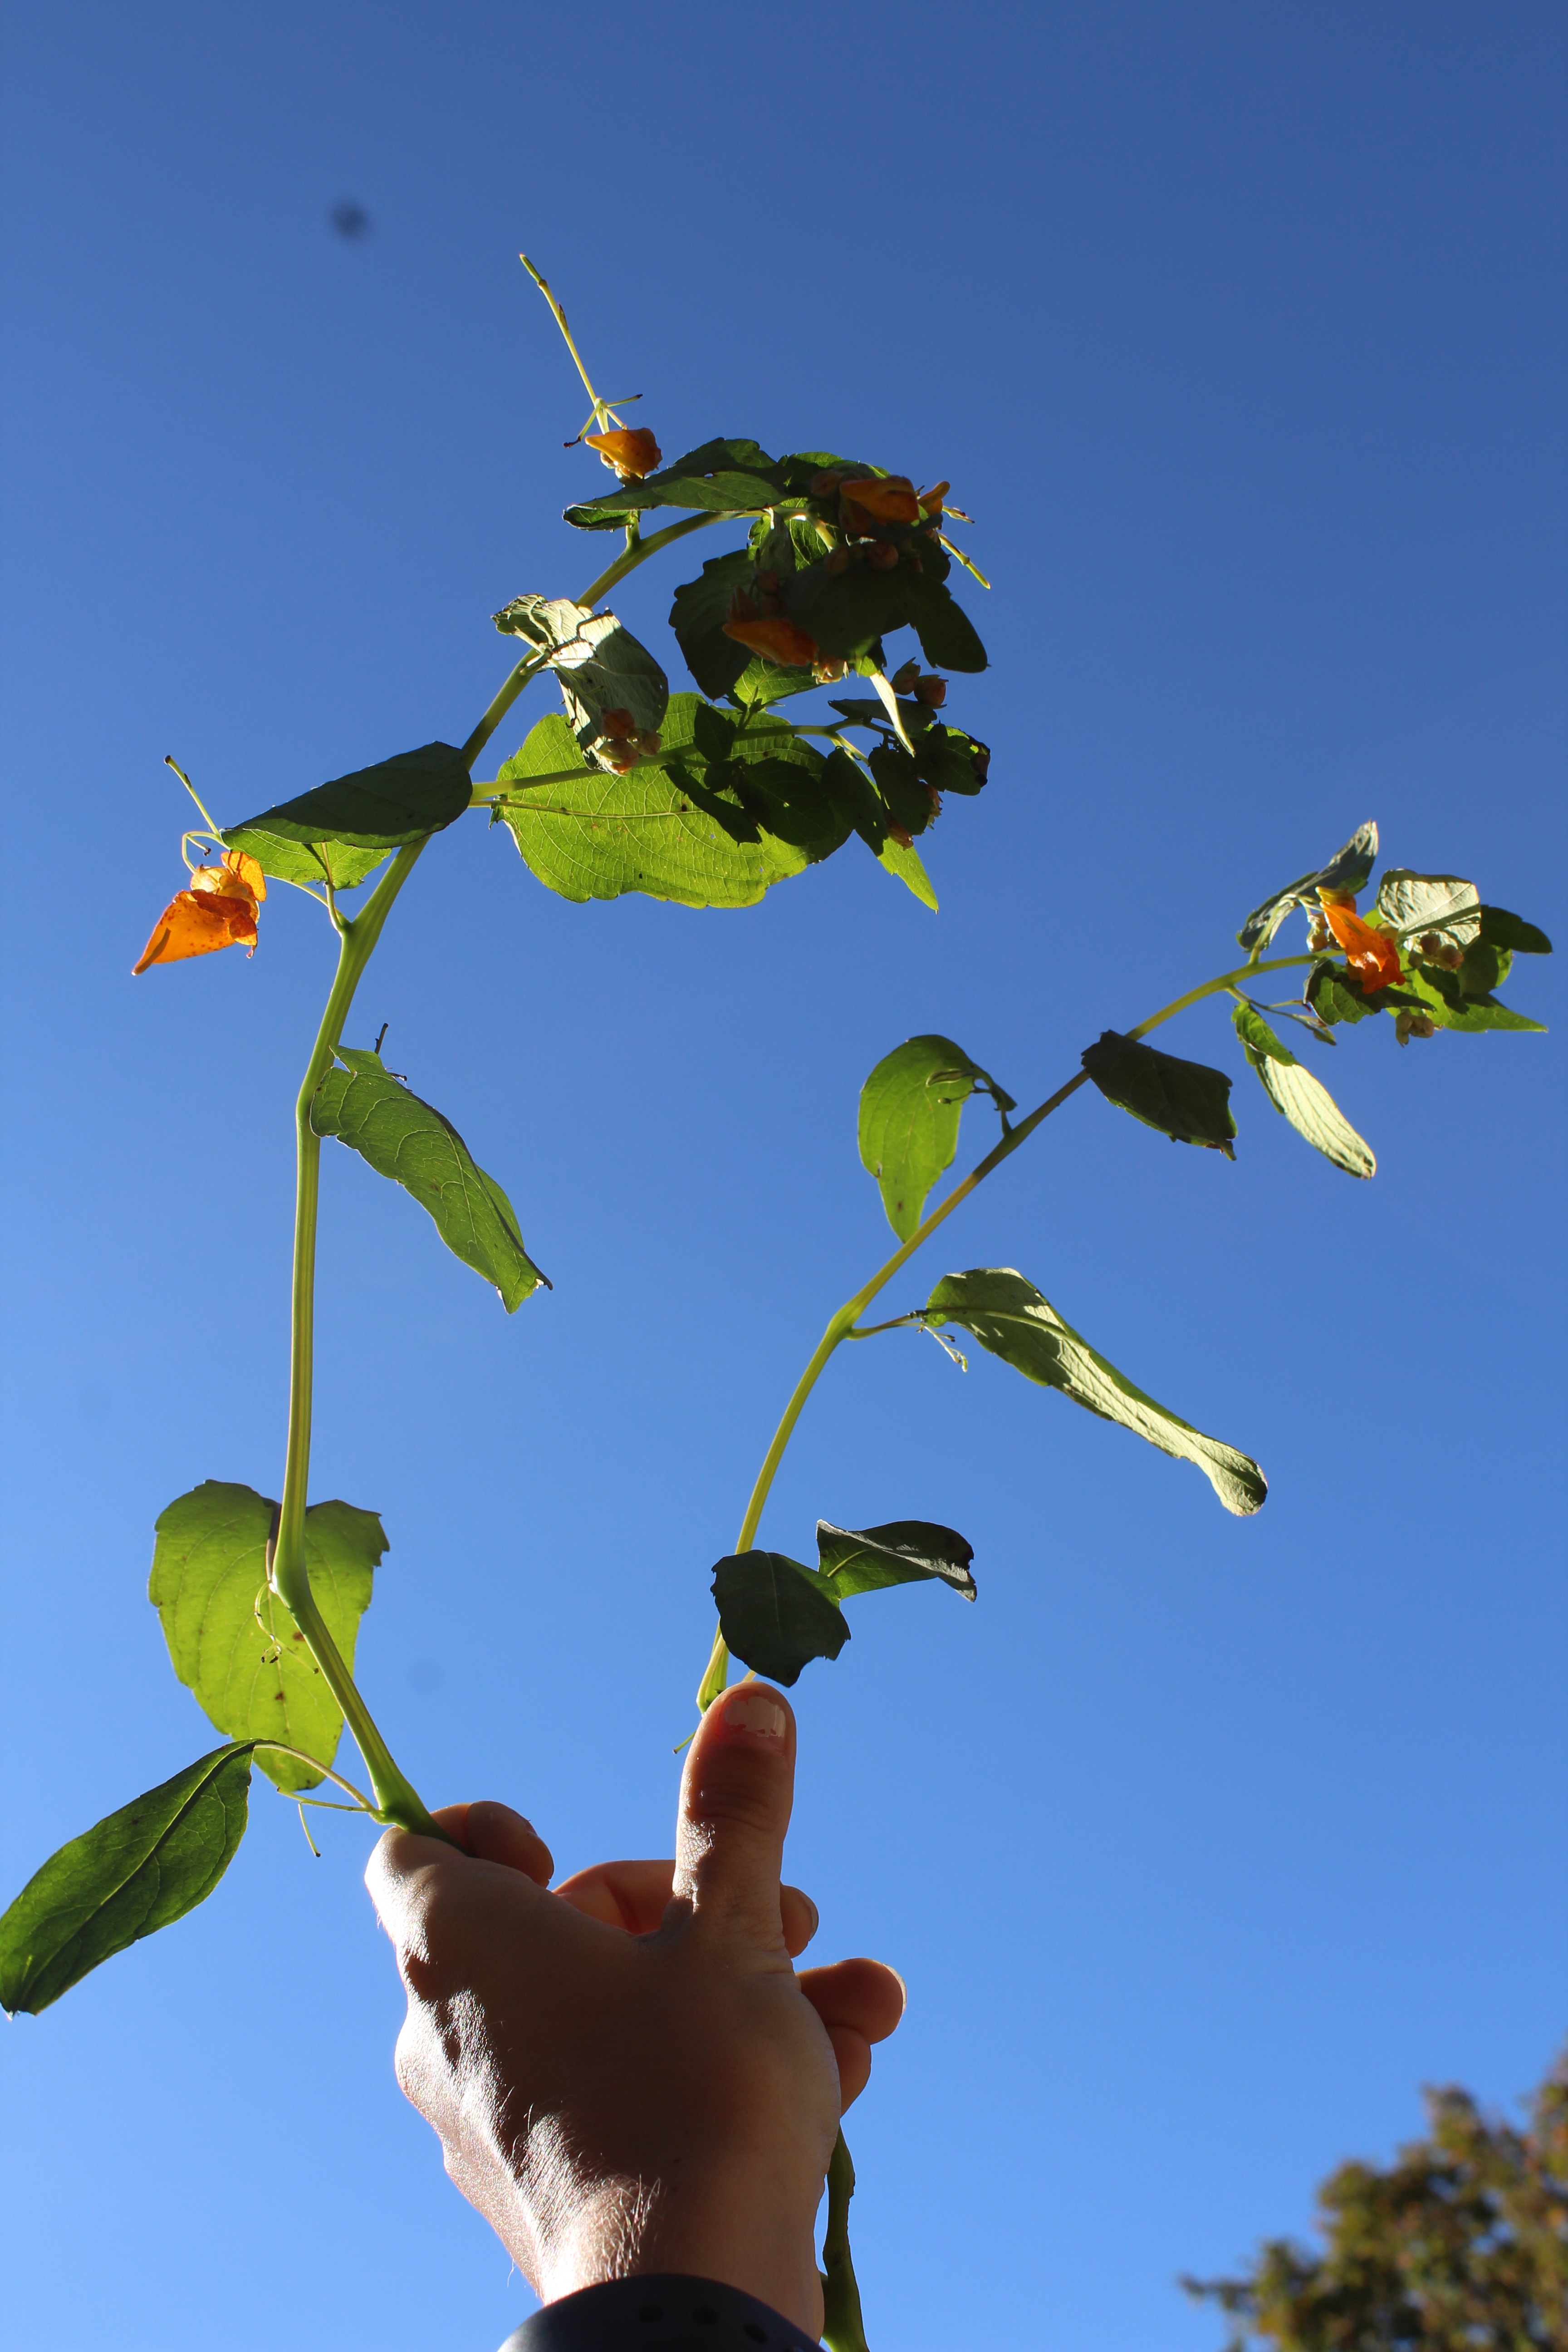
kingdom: Plantae
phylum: Tracheophyta
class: Magnoliopsida
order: Ericales
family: Balsaminaceae
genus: Impatiens
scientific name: Impatiens capensis
